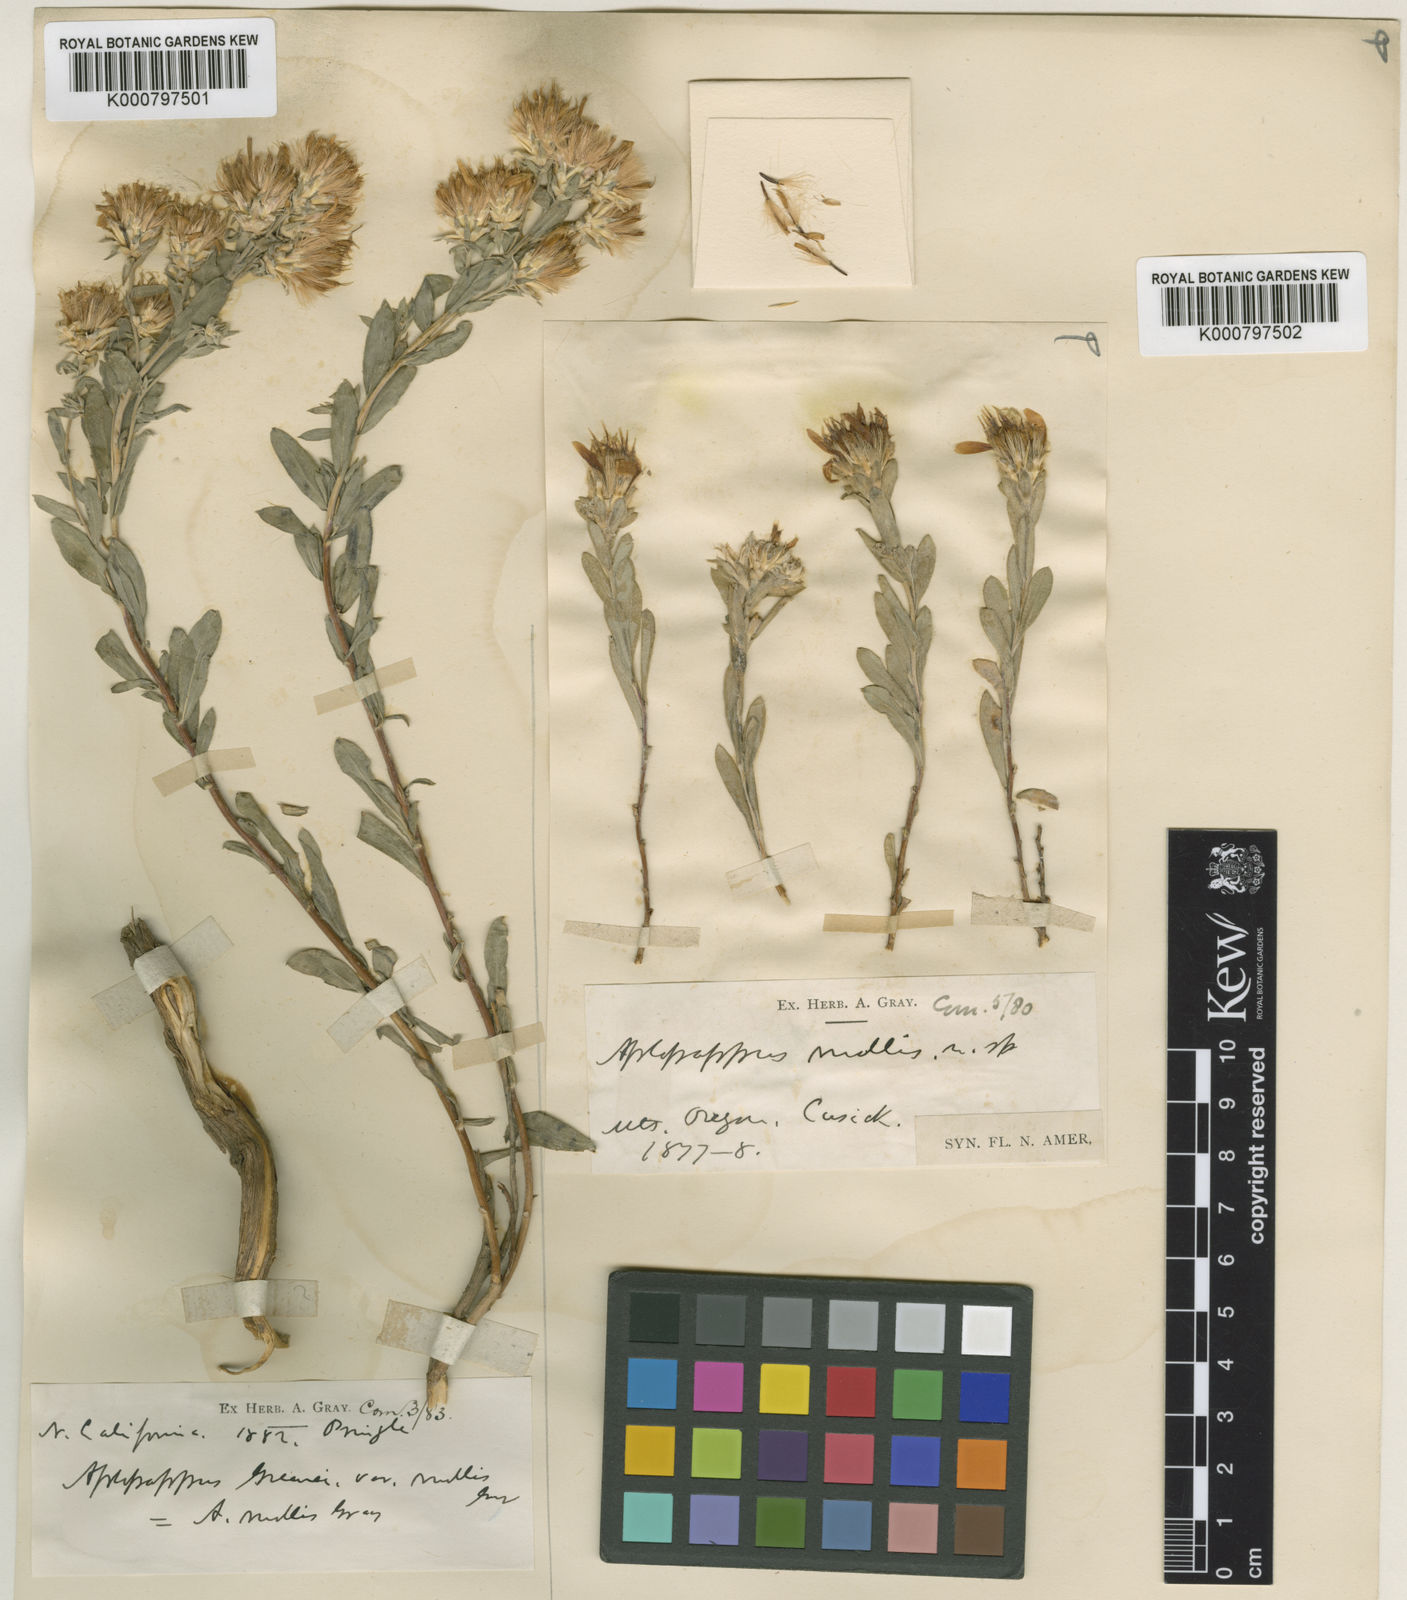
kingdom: Plantae
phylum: Tracheophyta
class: Magnoliopsida
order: Asterales
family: Asteraceae
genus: Ericameria
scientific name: Ericameria greenei
